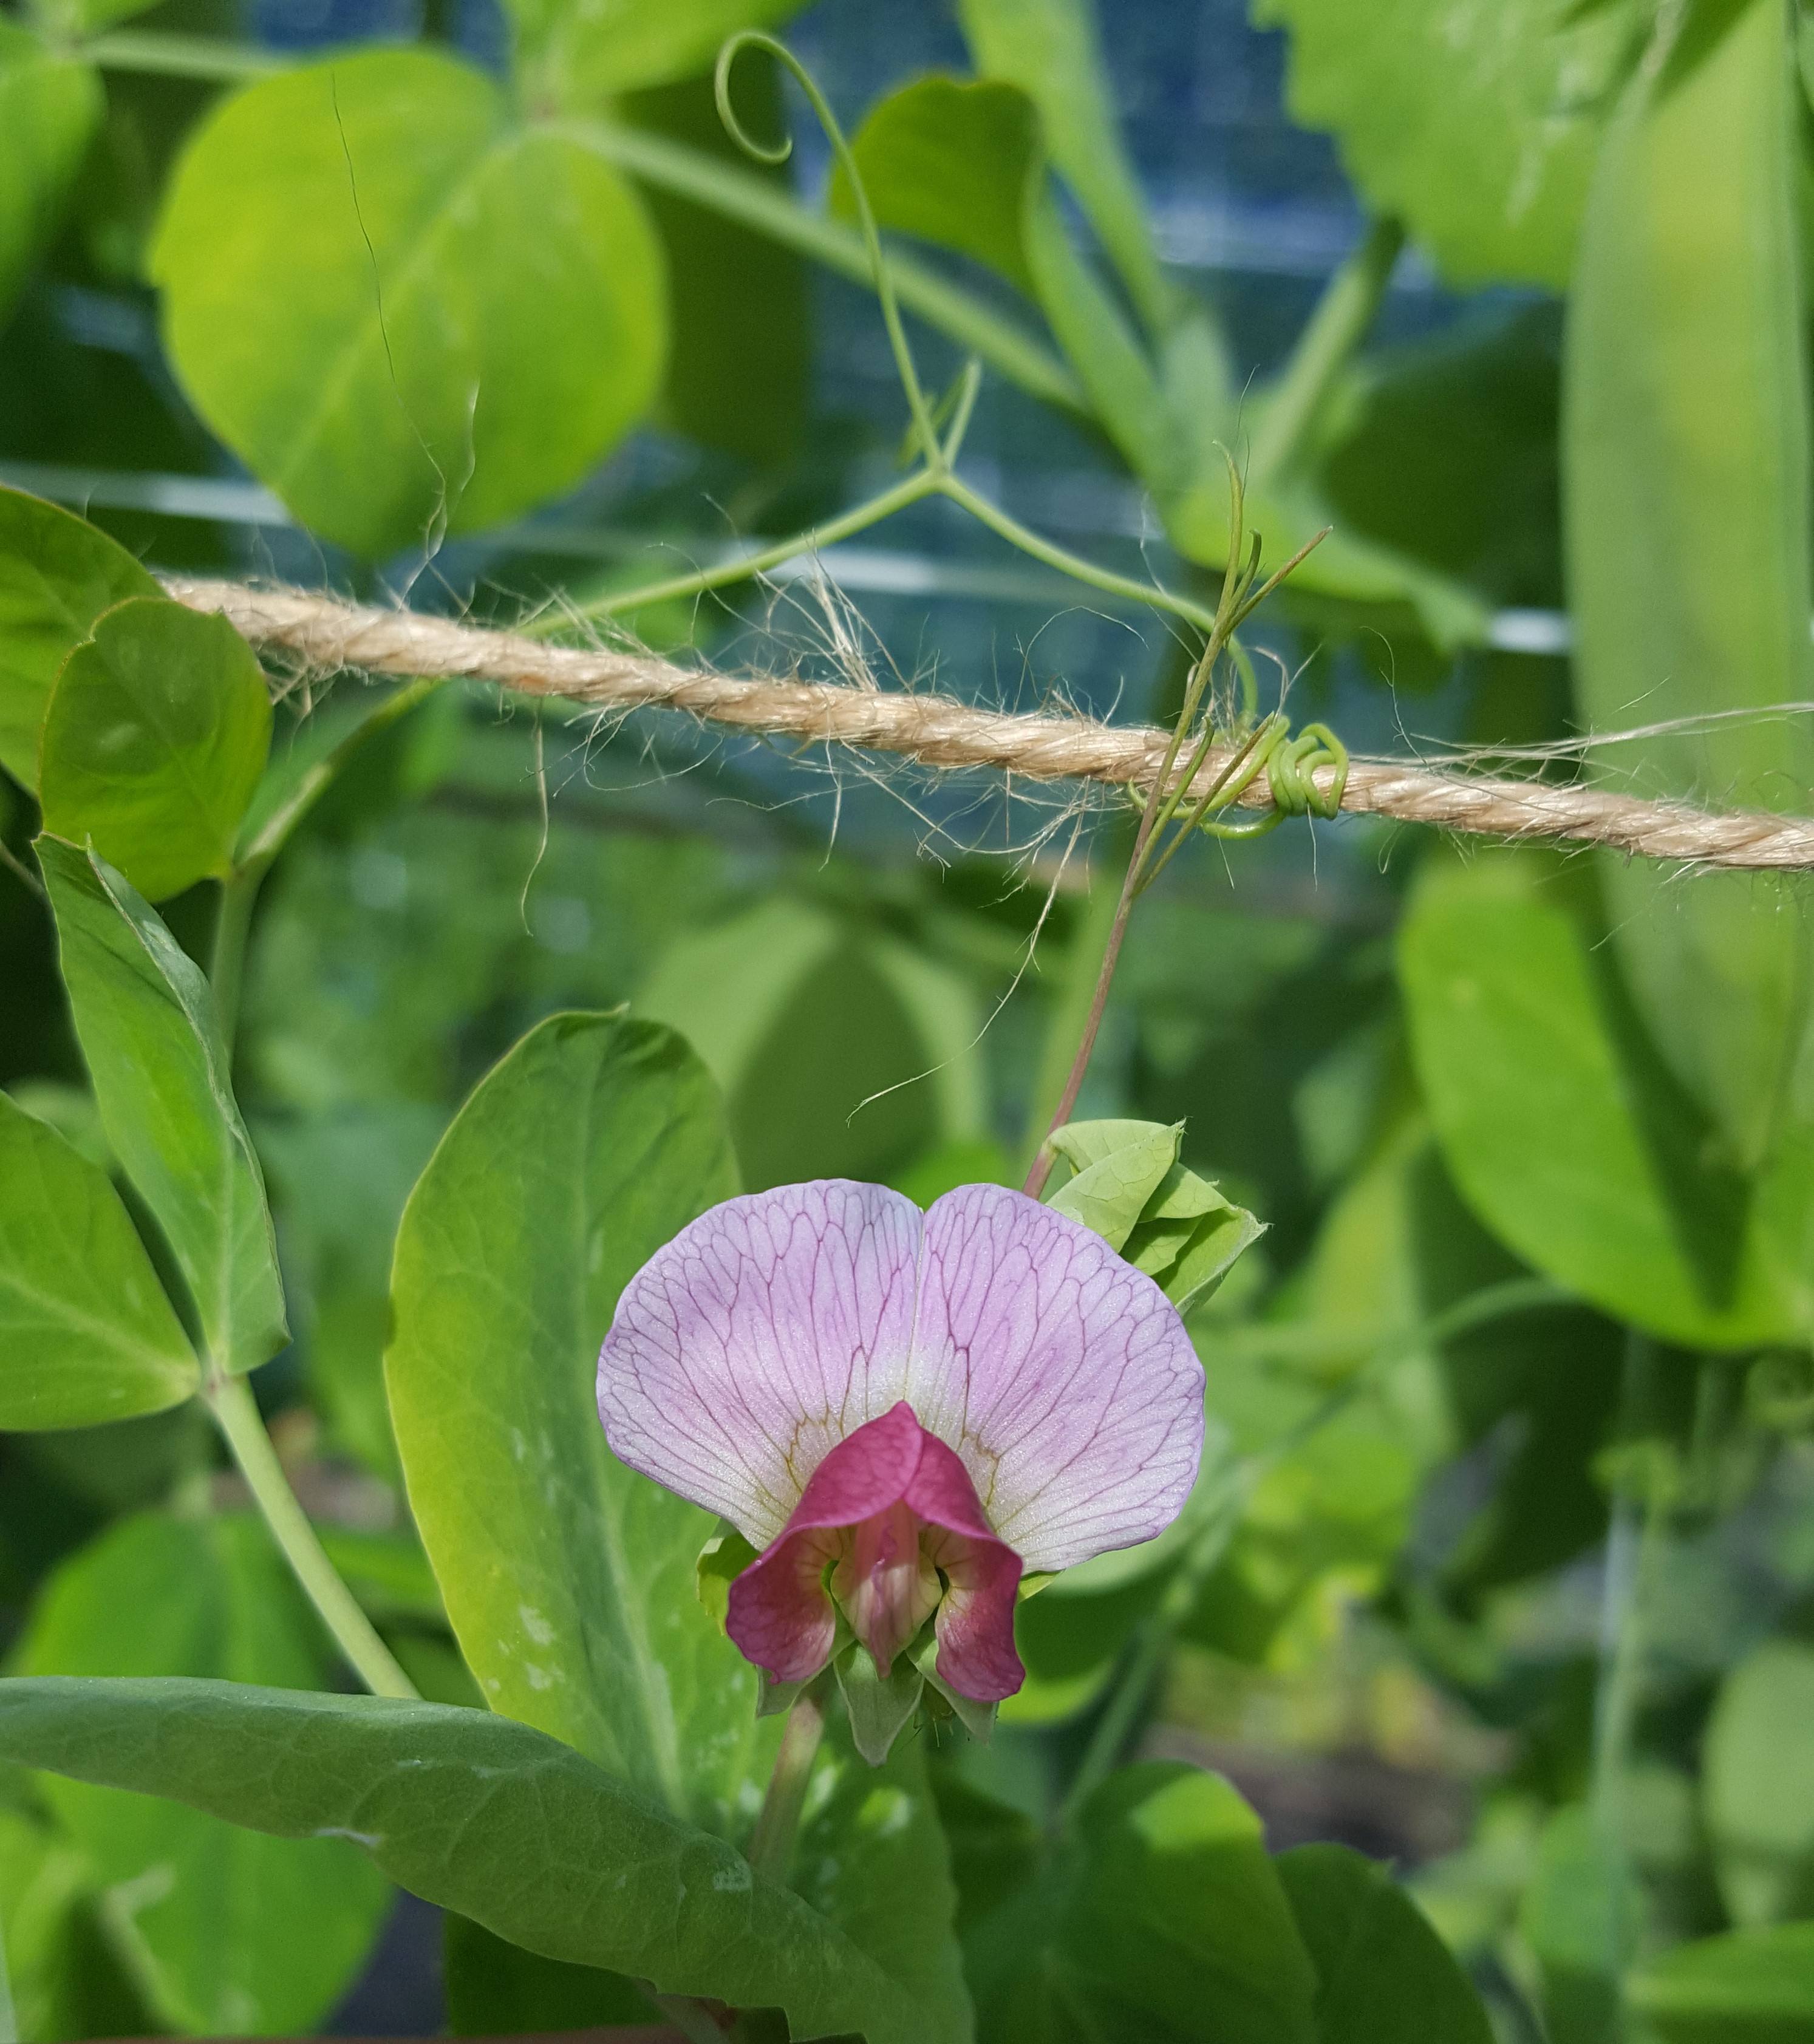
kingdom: Plantae
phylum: Tracheophyta
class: Magnoliopsida
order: Fabales
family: Fabaceae
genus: Lathyrus
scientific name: Lathyrus oleraceus
